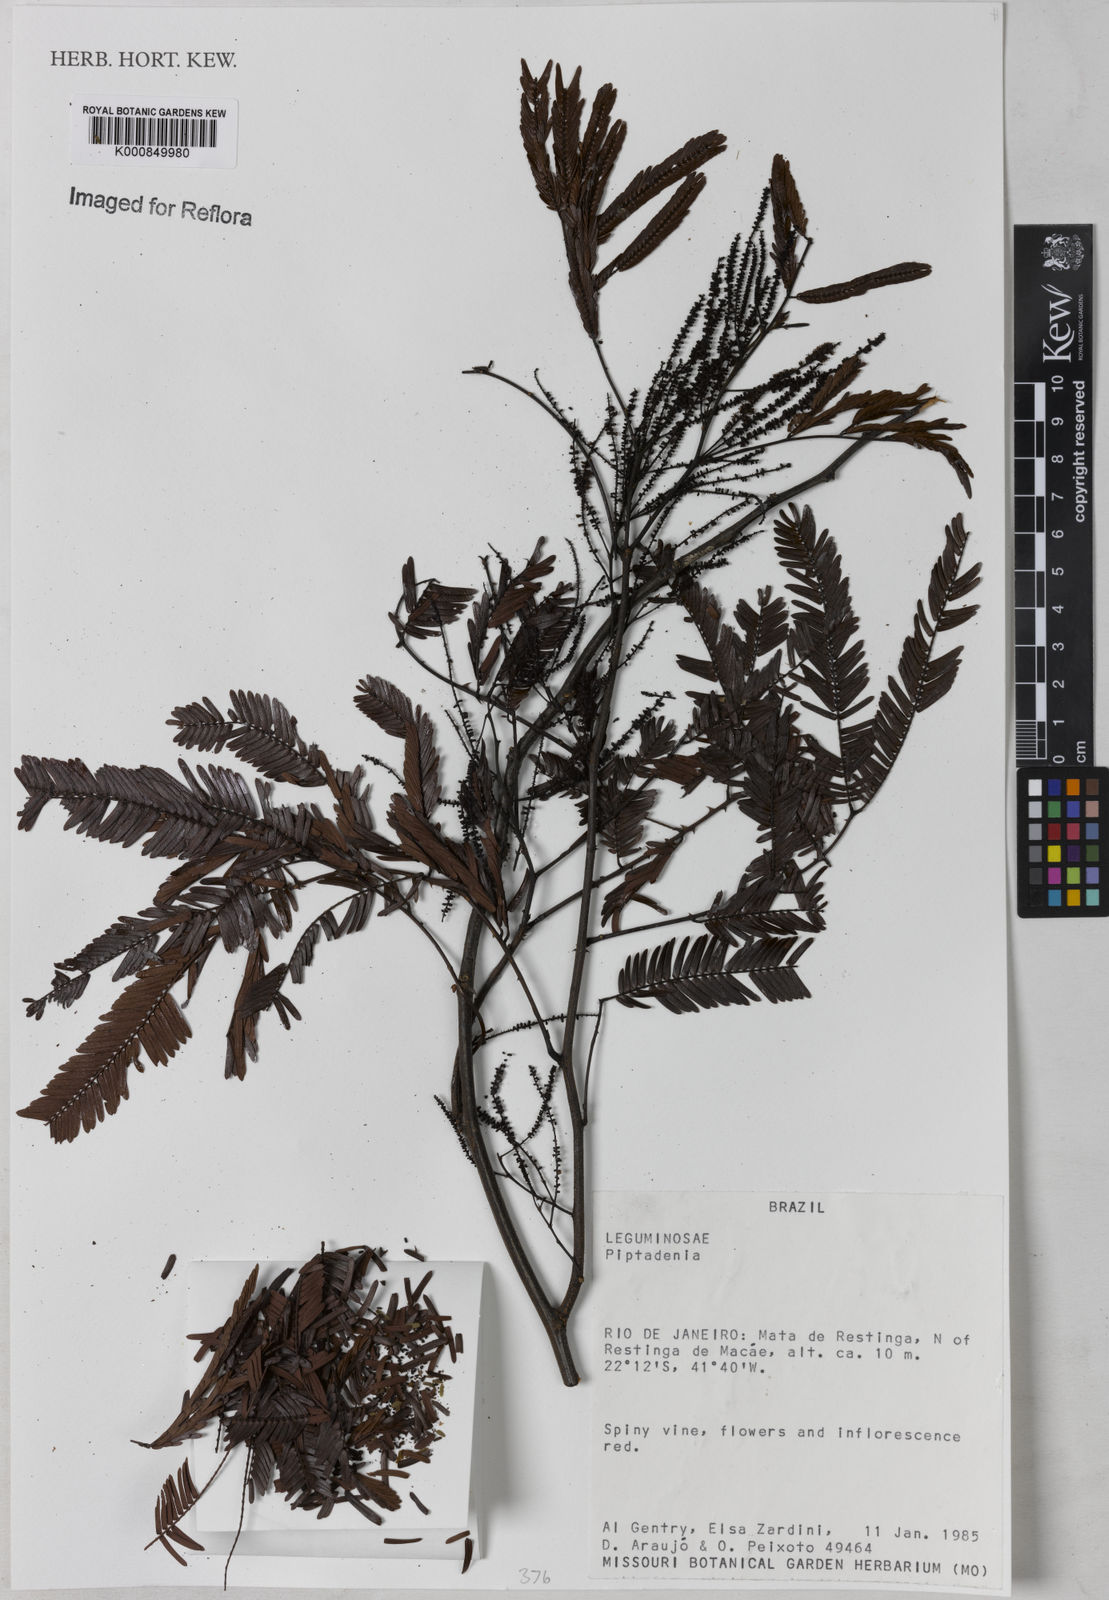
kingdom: Plantae
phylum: Tracheophyta
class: Magnoliopsida
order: Fabales
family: Fabaceae
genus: Piptadenia
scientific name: Piptadenia
